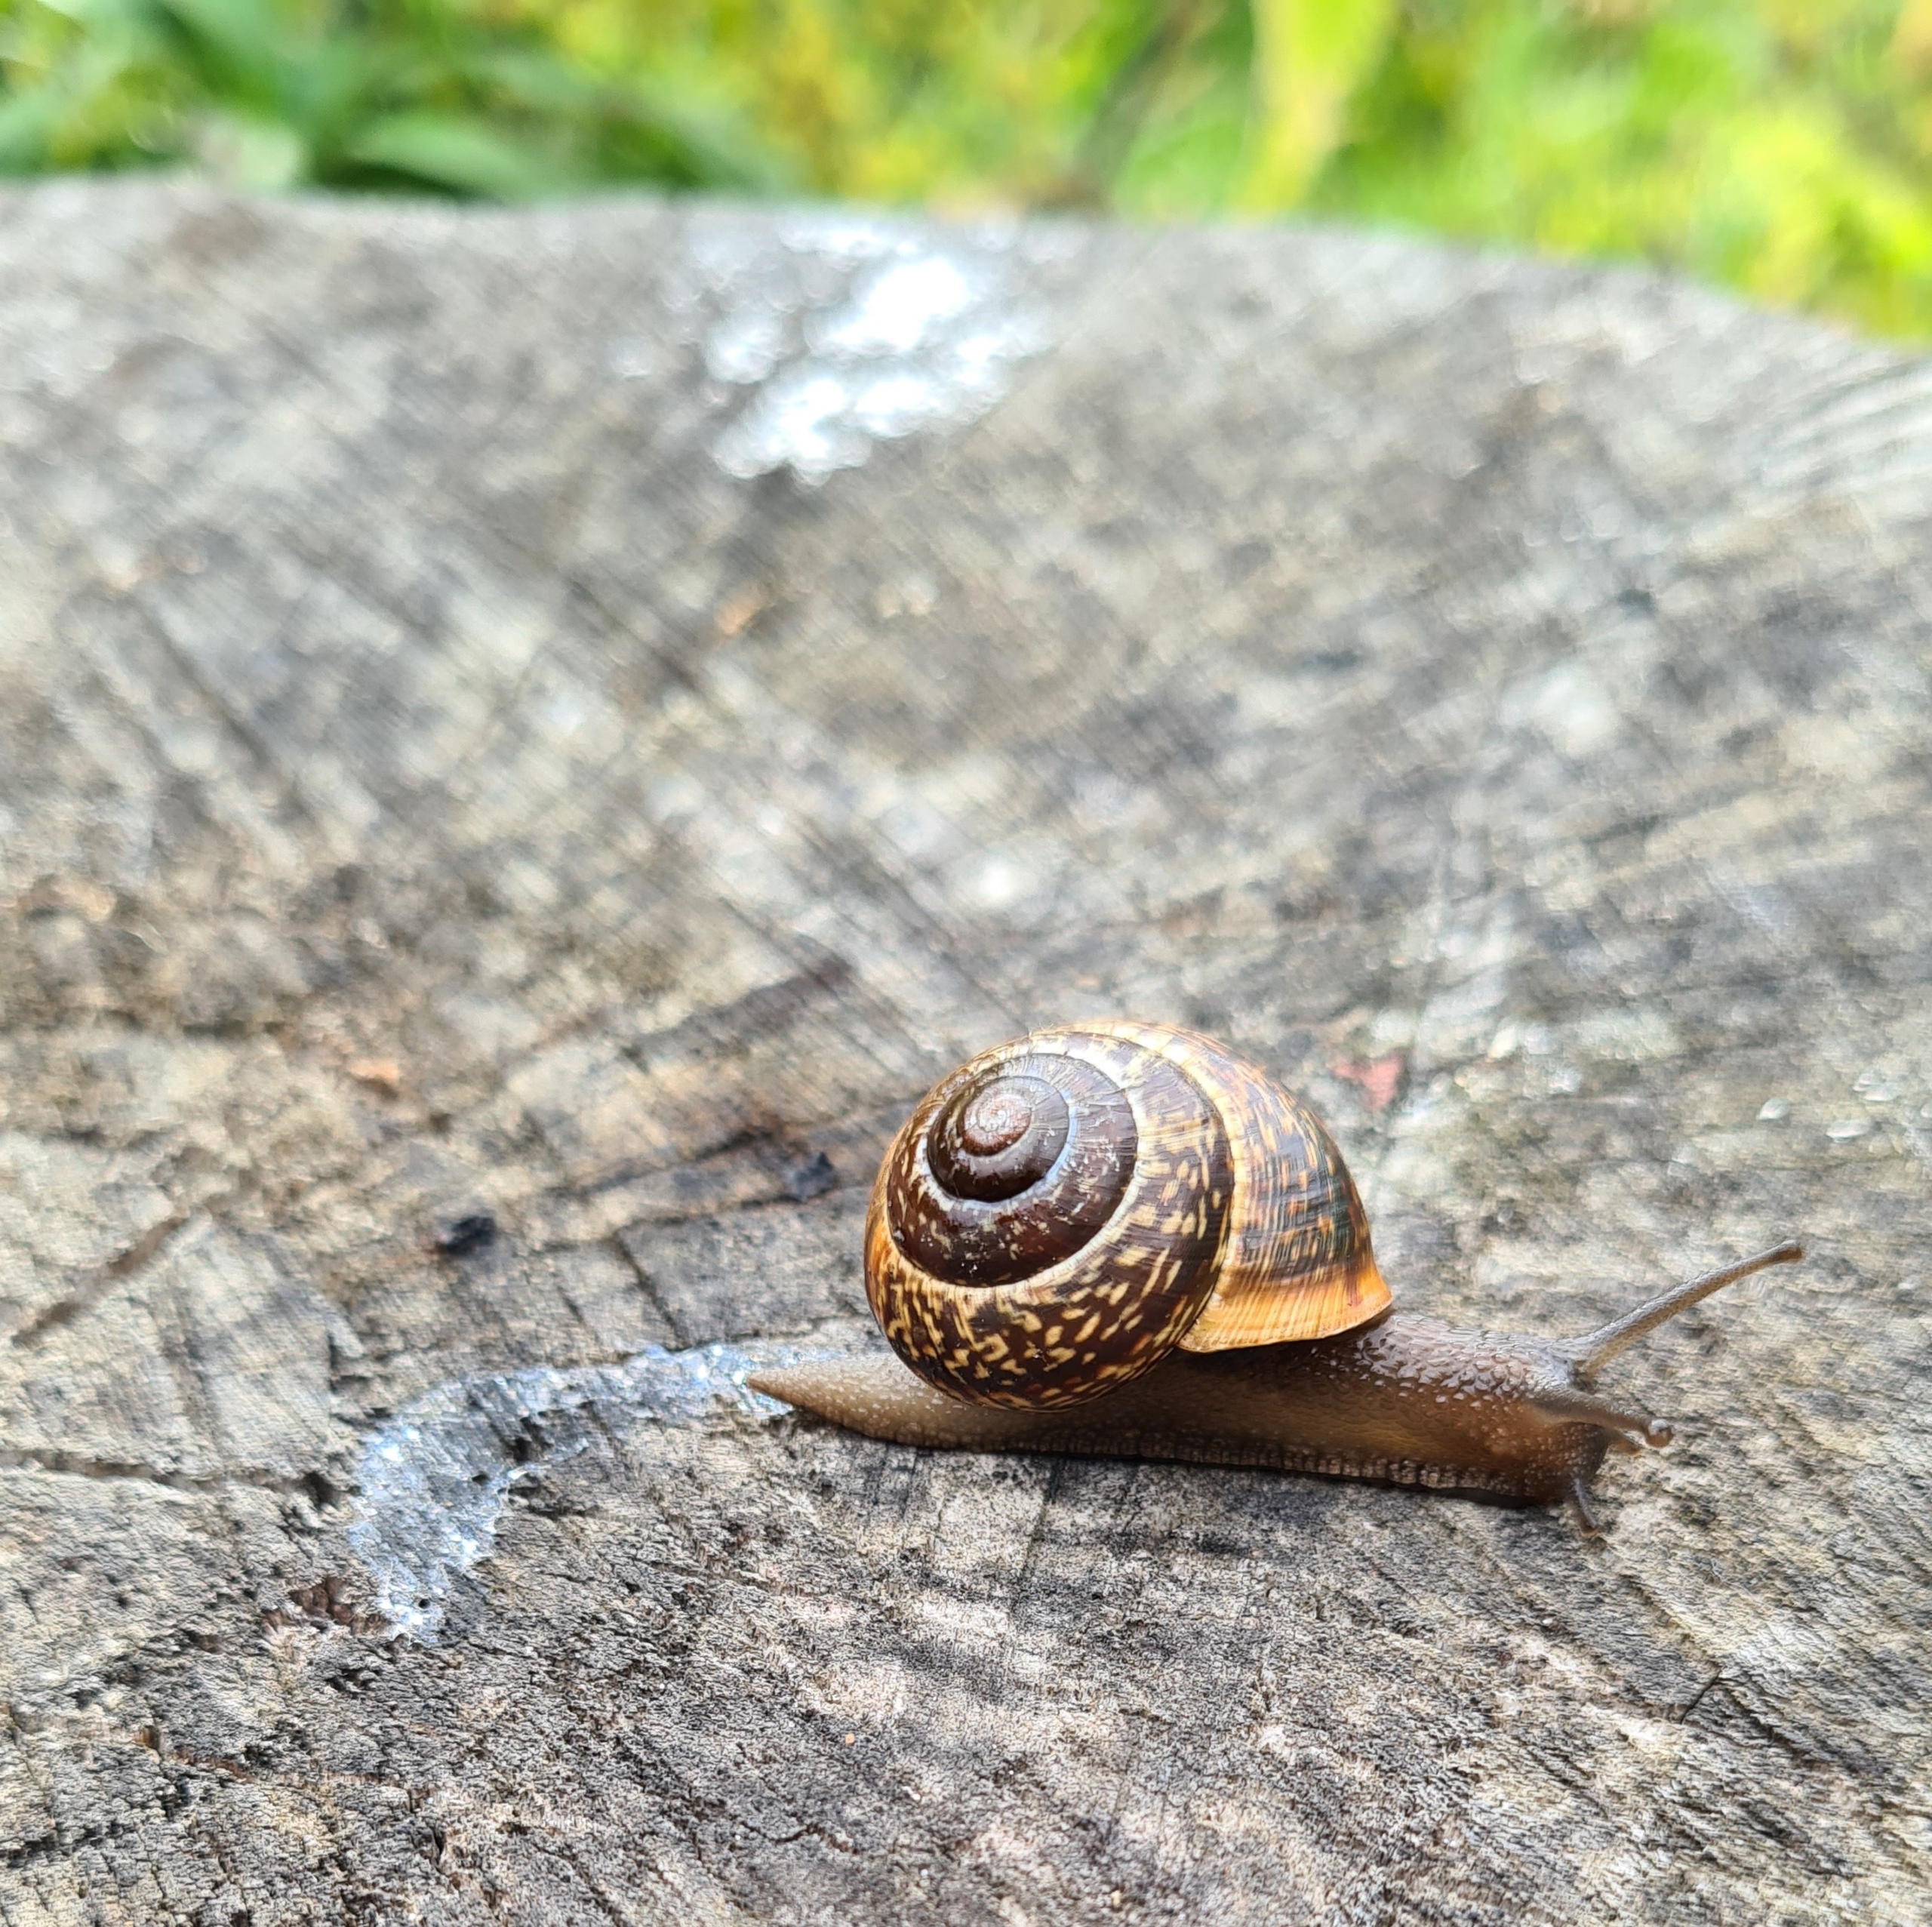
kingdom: Animalia
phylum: Mollusca
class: Gastropoda
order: Stylommatophora
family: Helicidae
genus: Arianta
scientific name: Arianta arbustorum
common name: Kratsnegl
